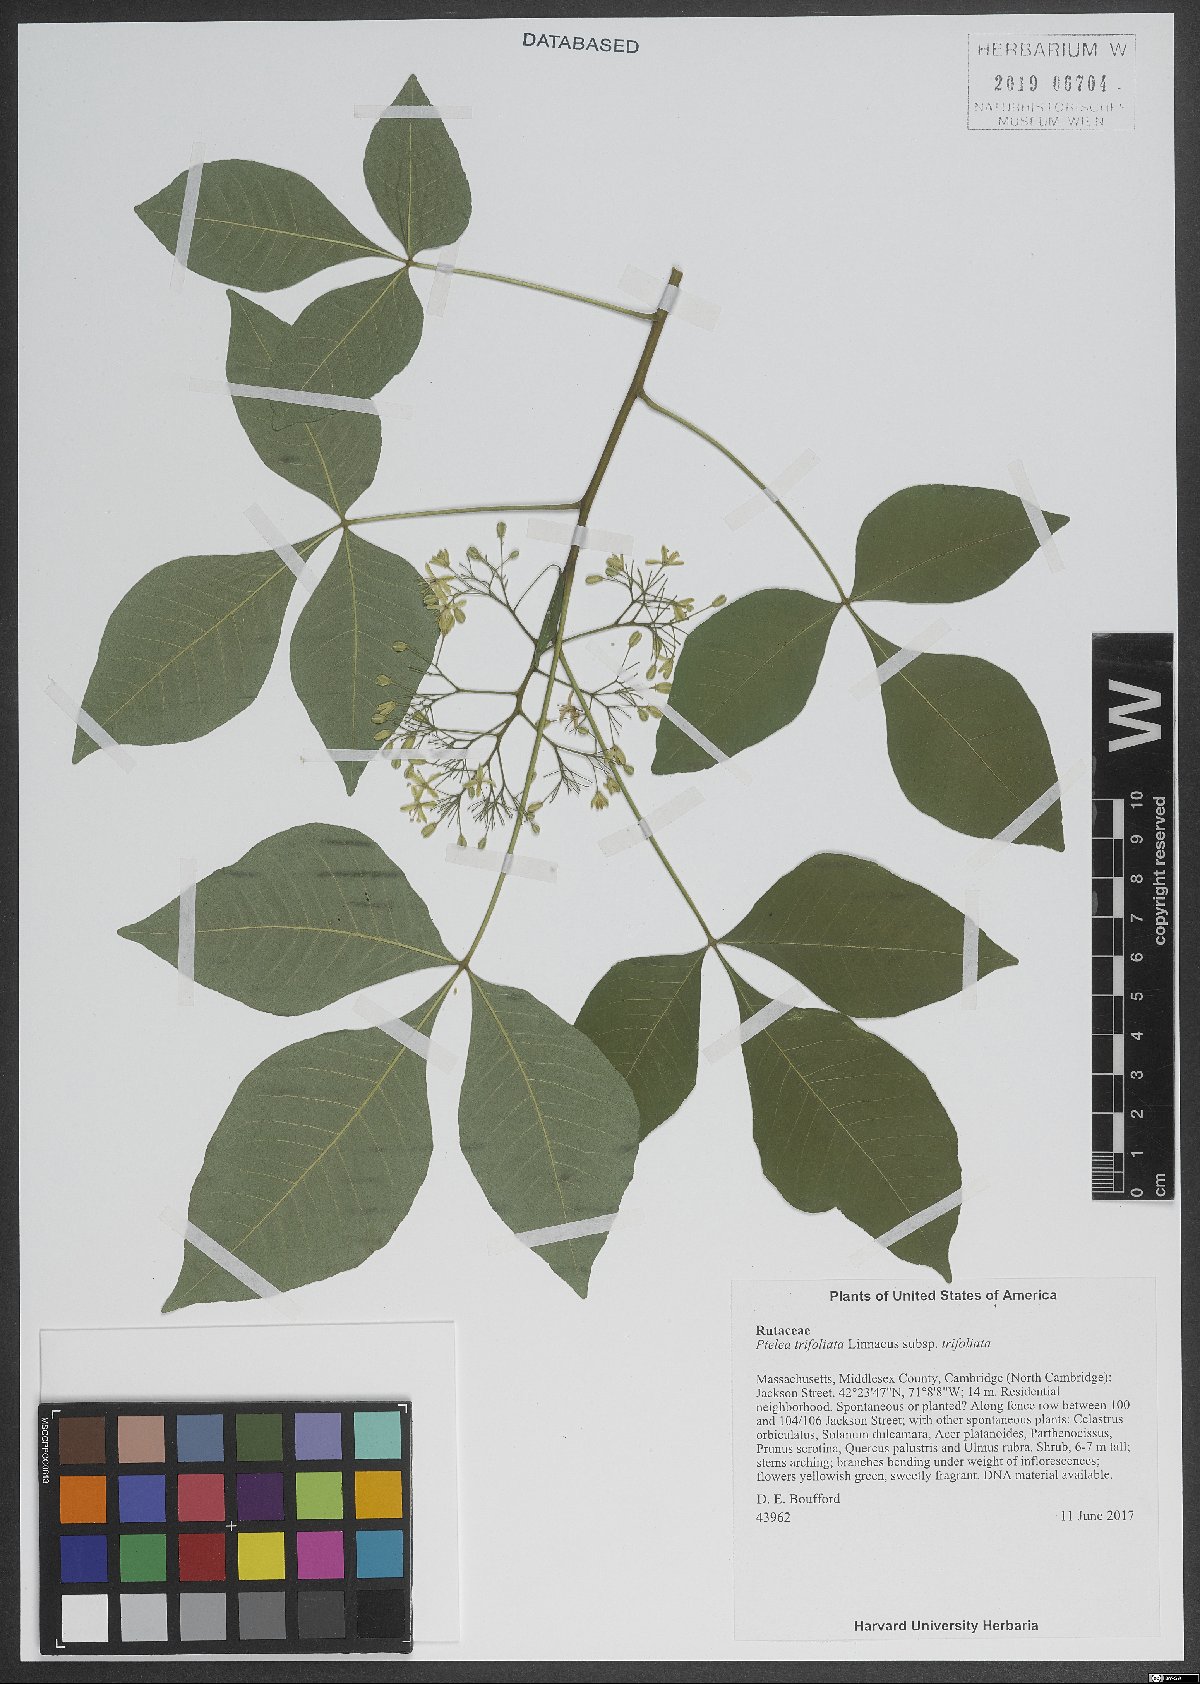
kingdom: Plantae
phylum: Tracheophyta
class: Magnoliopsida
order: Sapindales
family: Rutaceae
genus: Ptelea
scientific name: Ptelea trifoliata
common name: Common hop-tree
